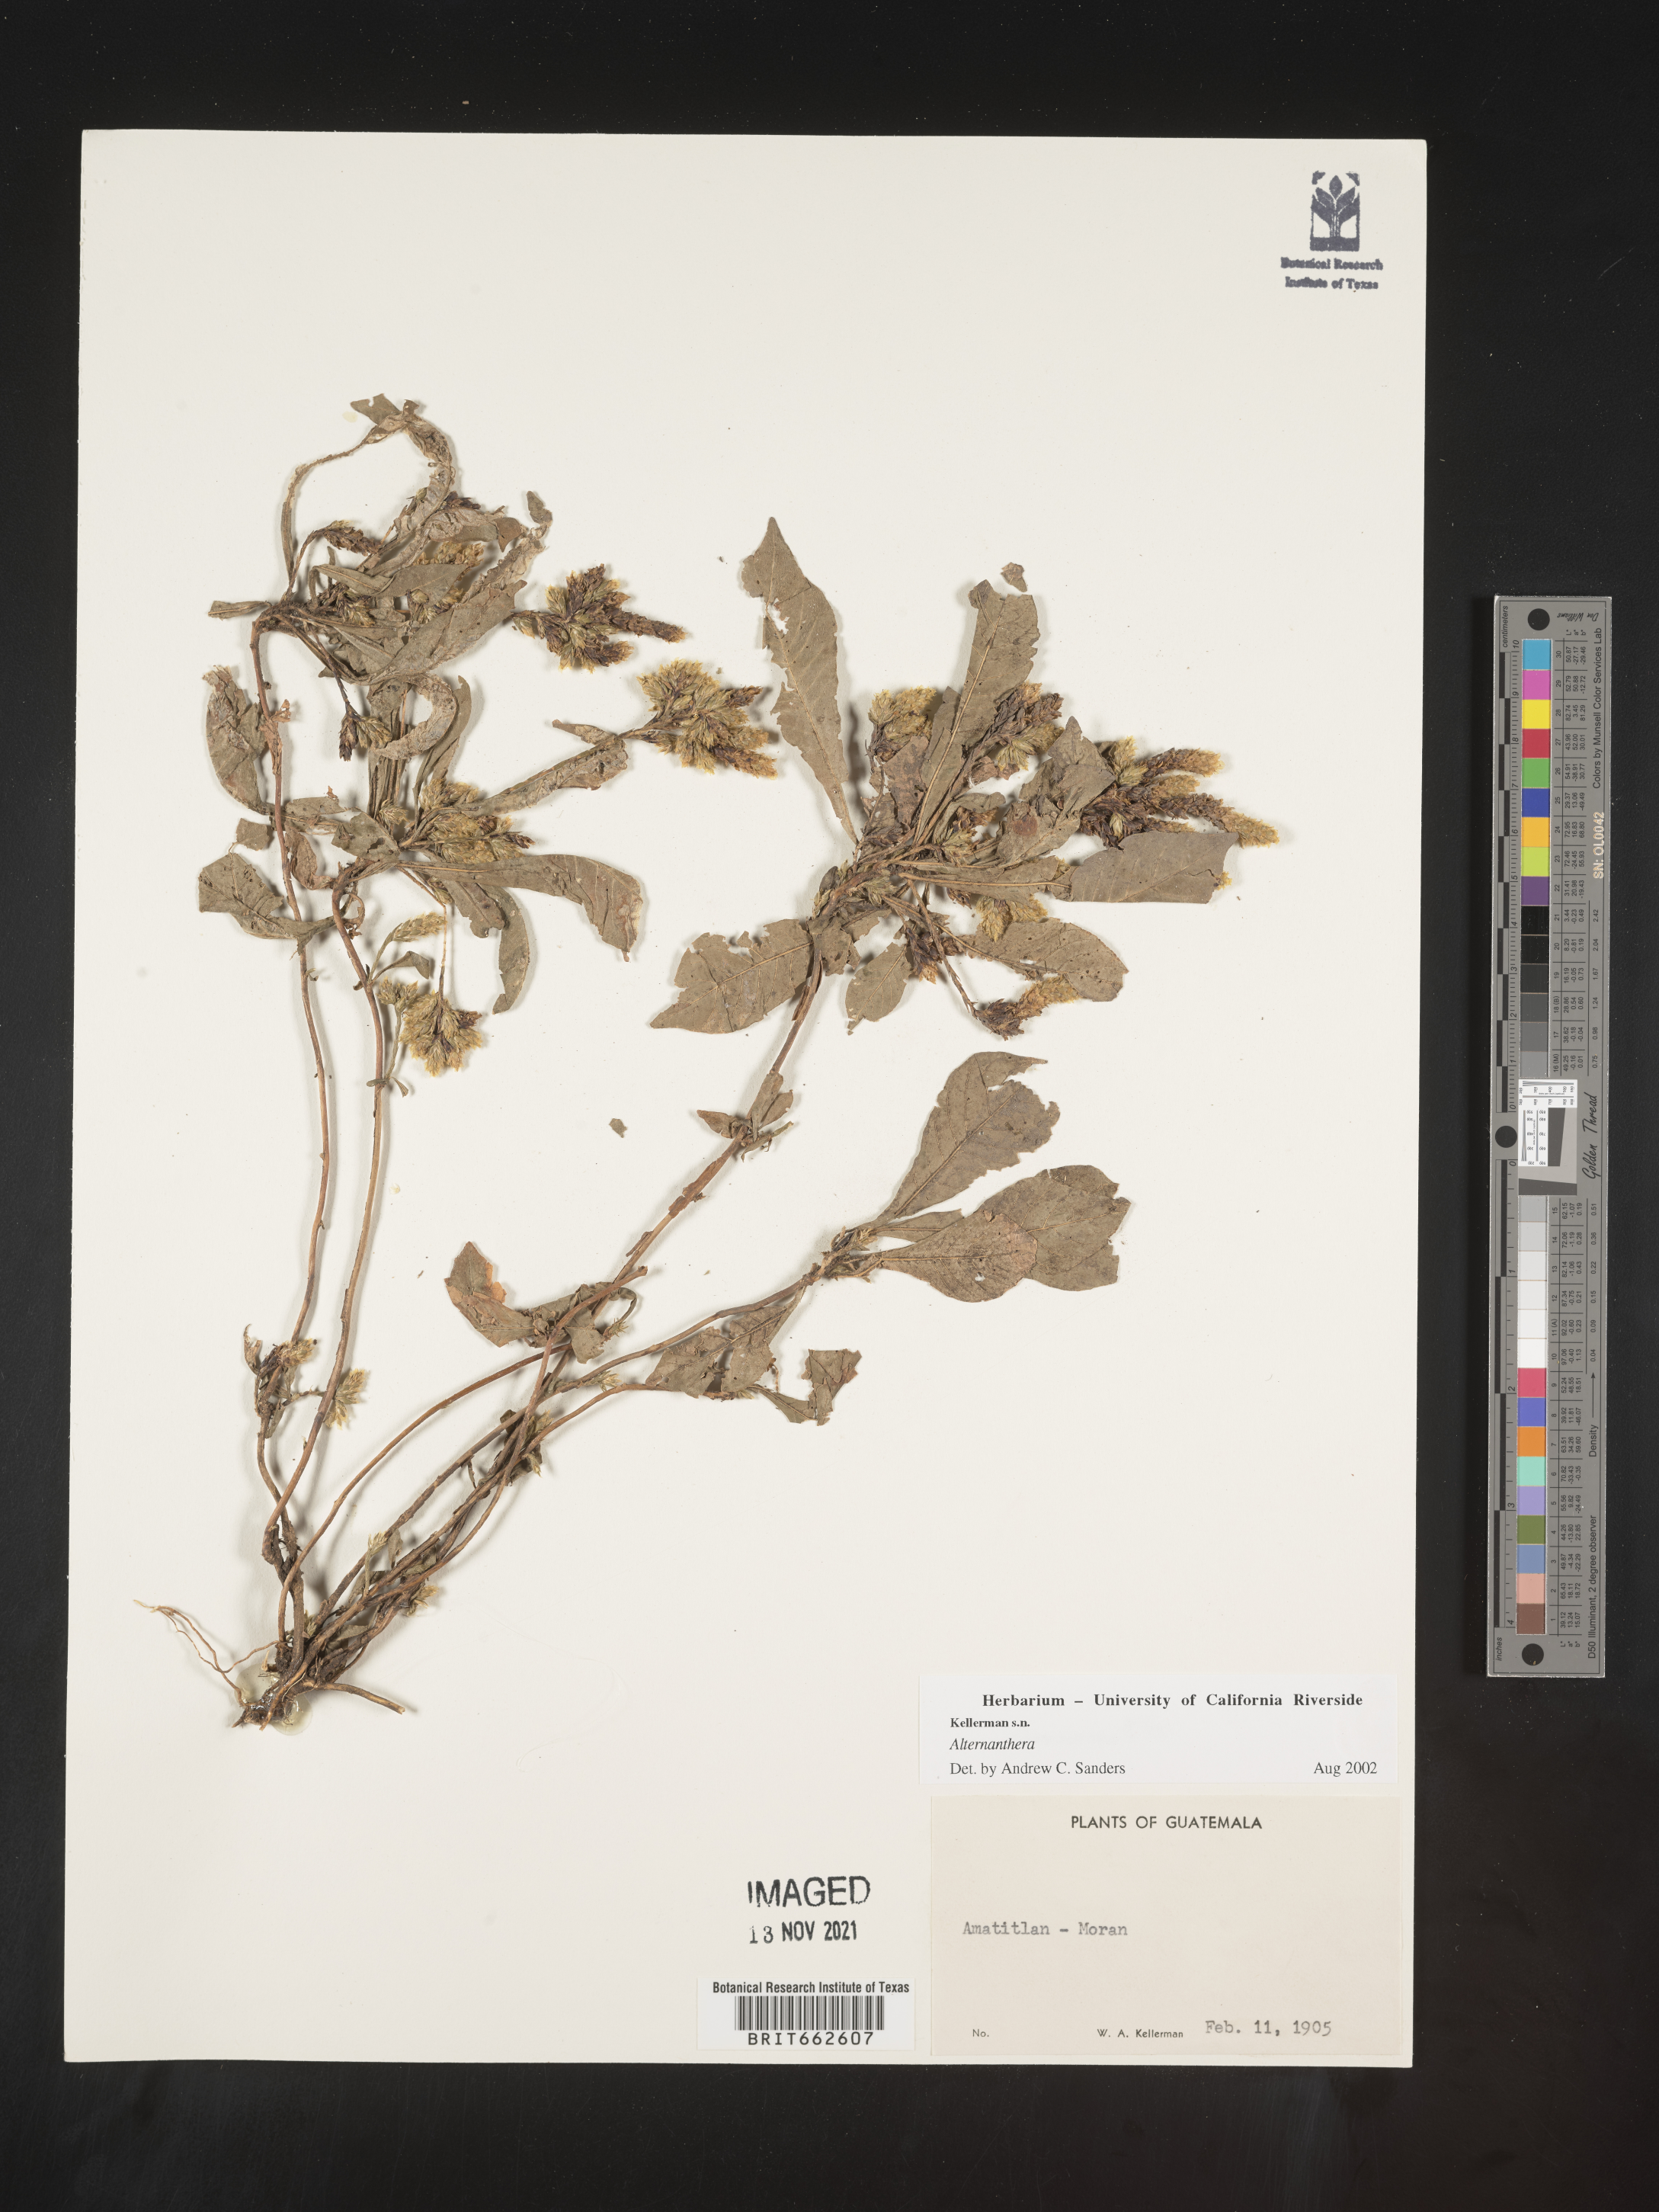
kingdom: Plantae
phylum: Tracheophyta
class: Magnoliopsida
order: Caryophyllales
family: Amaranthaceae
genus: Alternanthera
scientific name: Alternanthera
